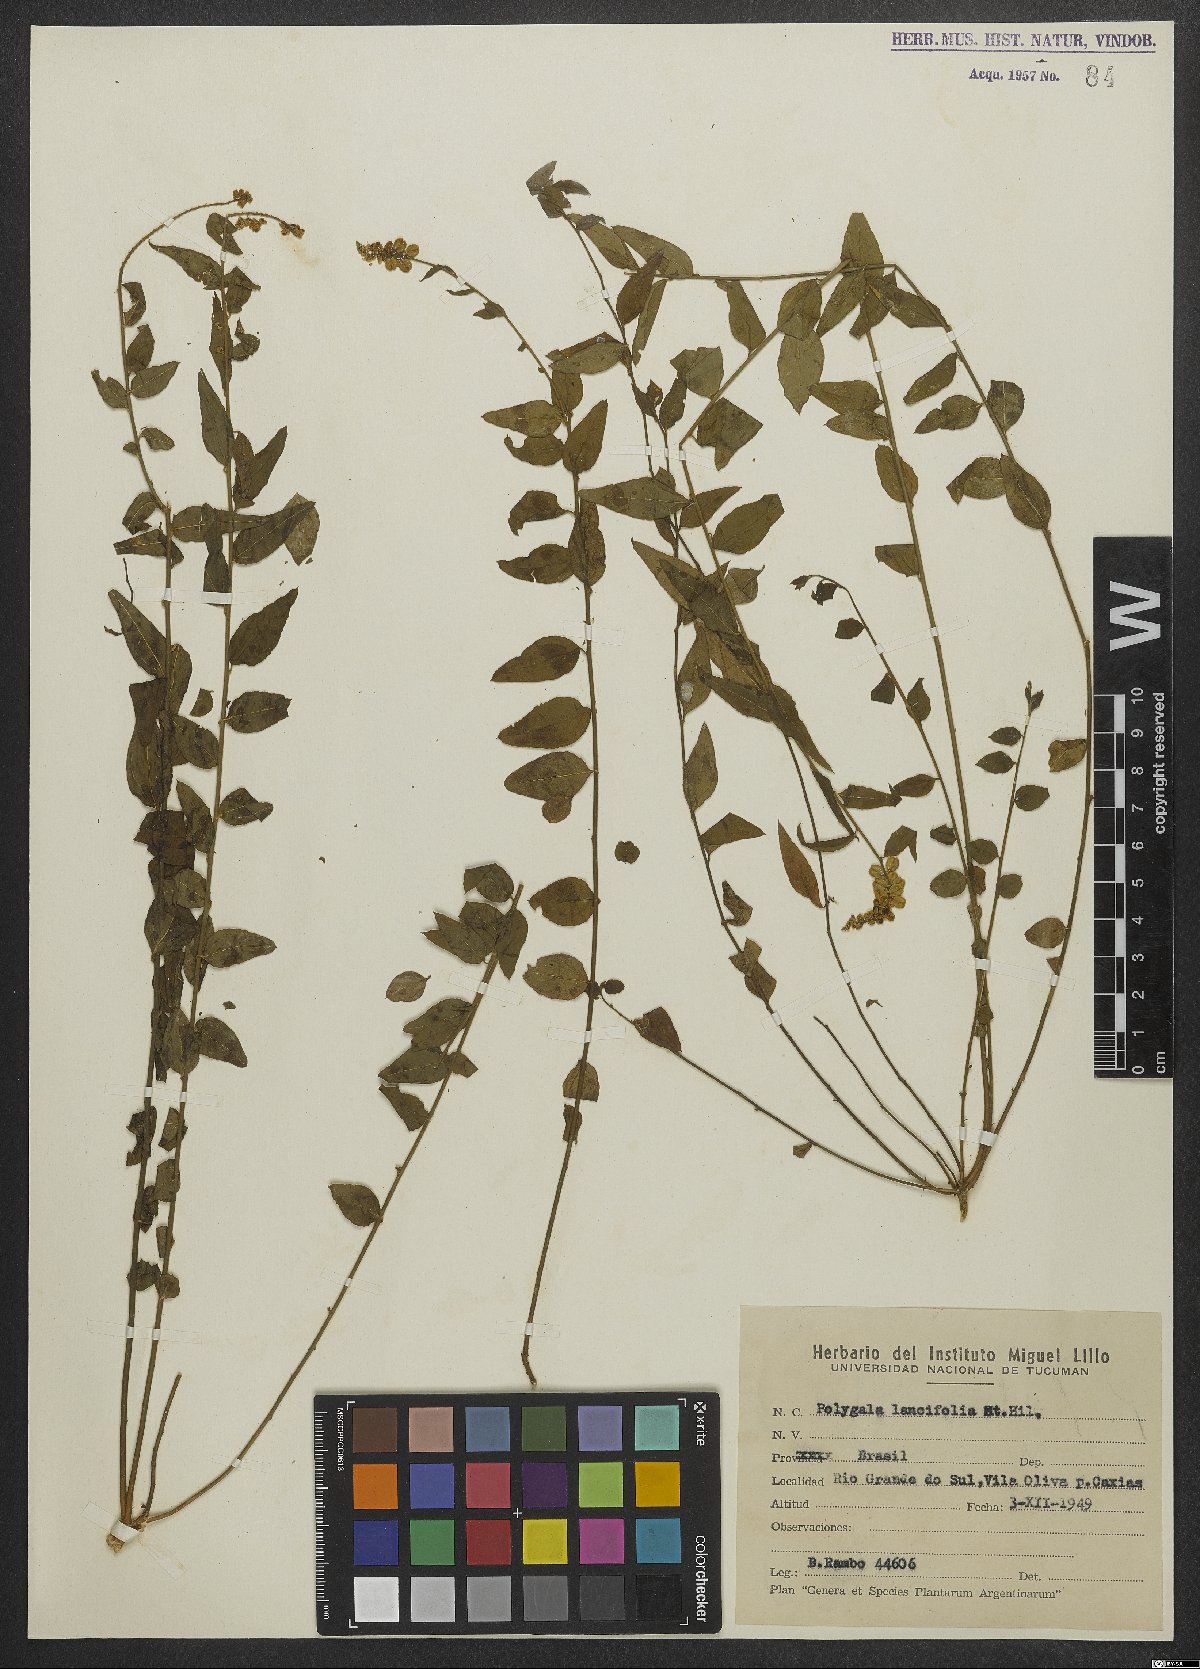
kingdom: Plantae
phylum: Tracheophyta
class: Magnoliopsida
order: Fabales
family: Polygalaceae
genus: Polygala
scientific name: Polygala lancifolia
